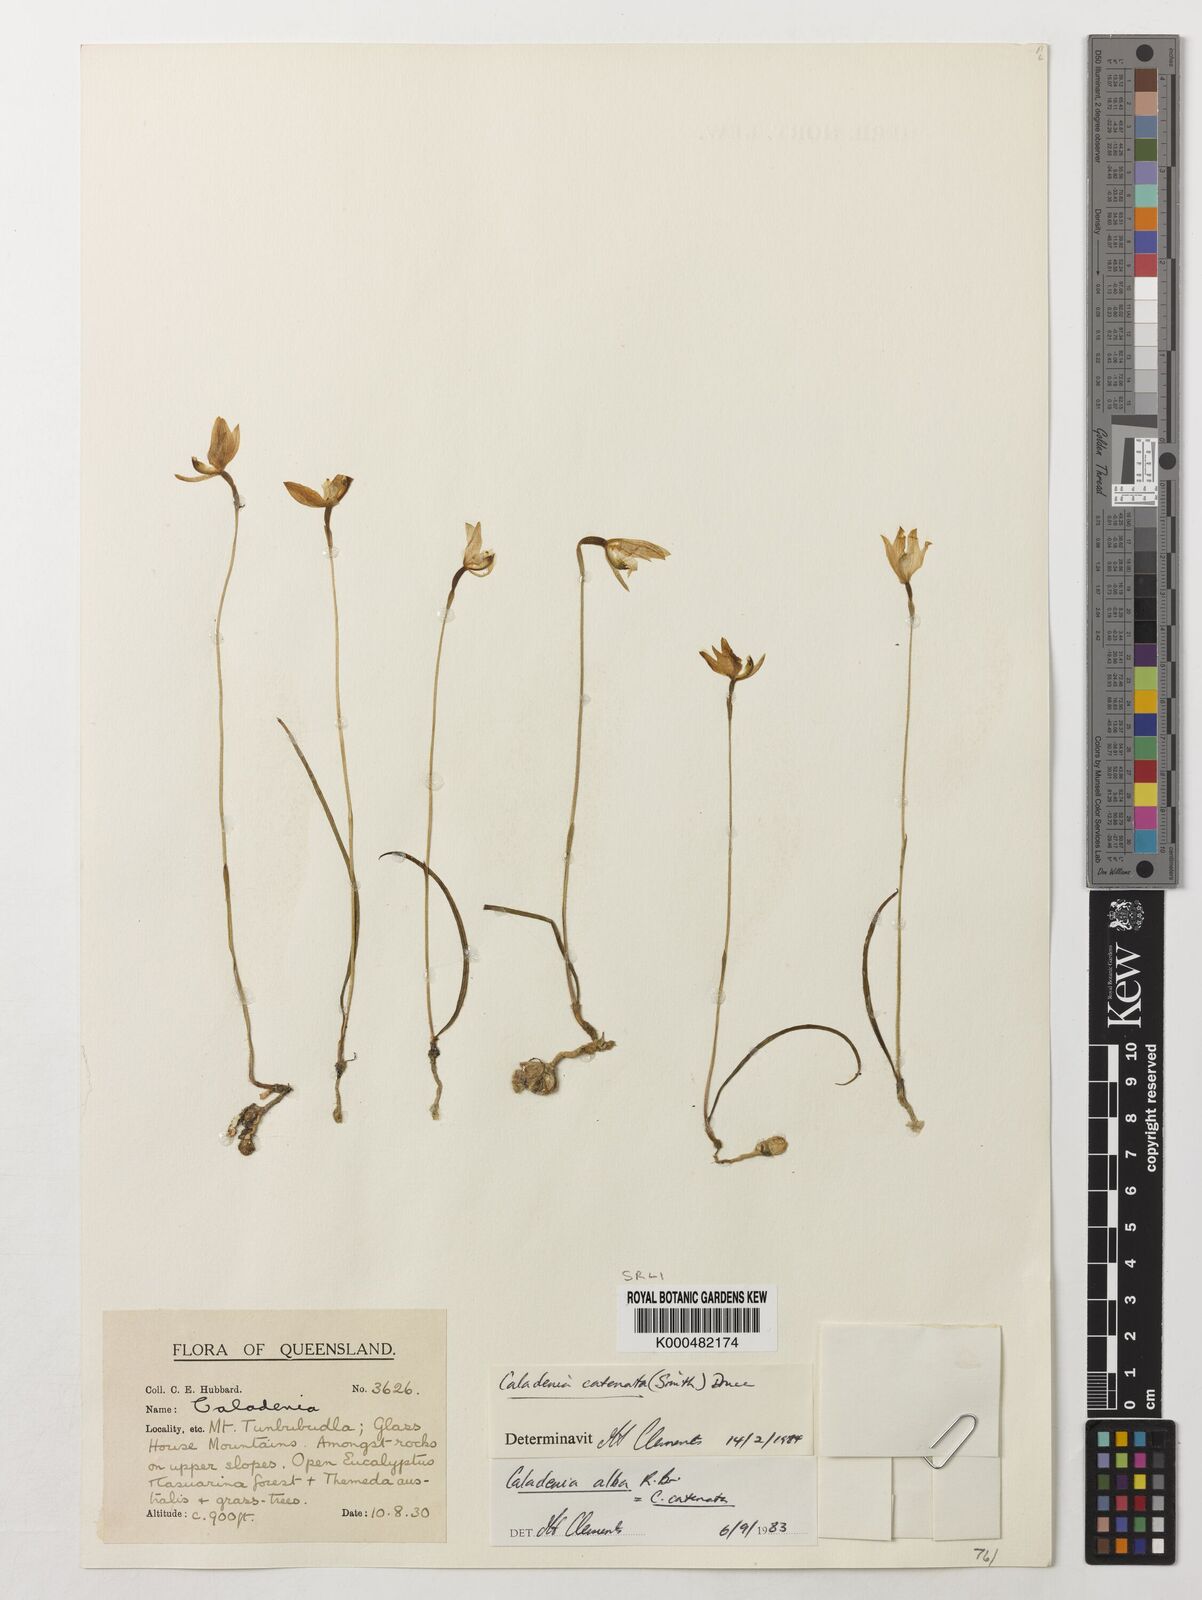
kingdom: Plantae
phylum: Tracheophyta
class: Liliopsida
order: Asparagales
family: Orchidaceae
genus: Caladenia
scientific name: Caladenia
